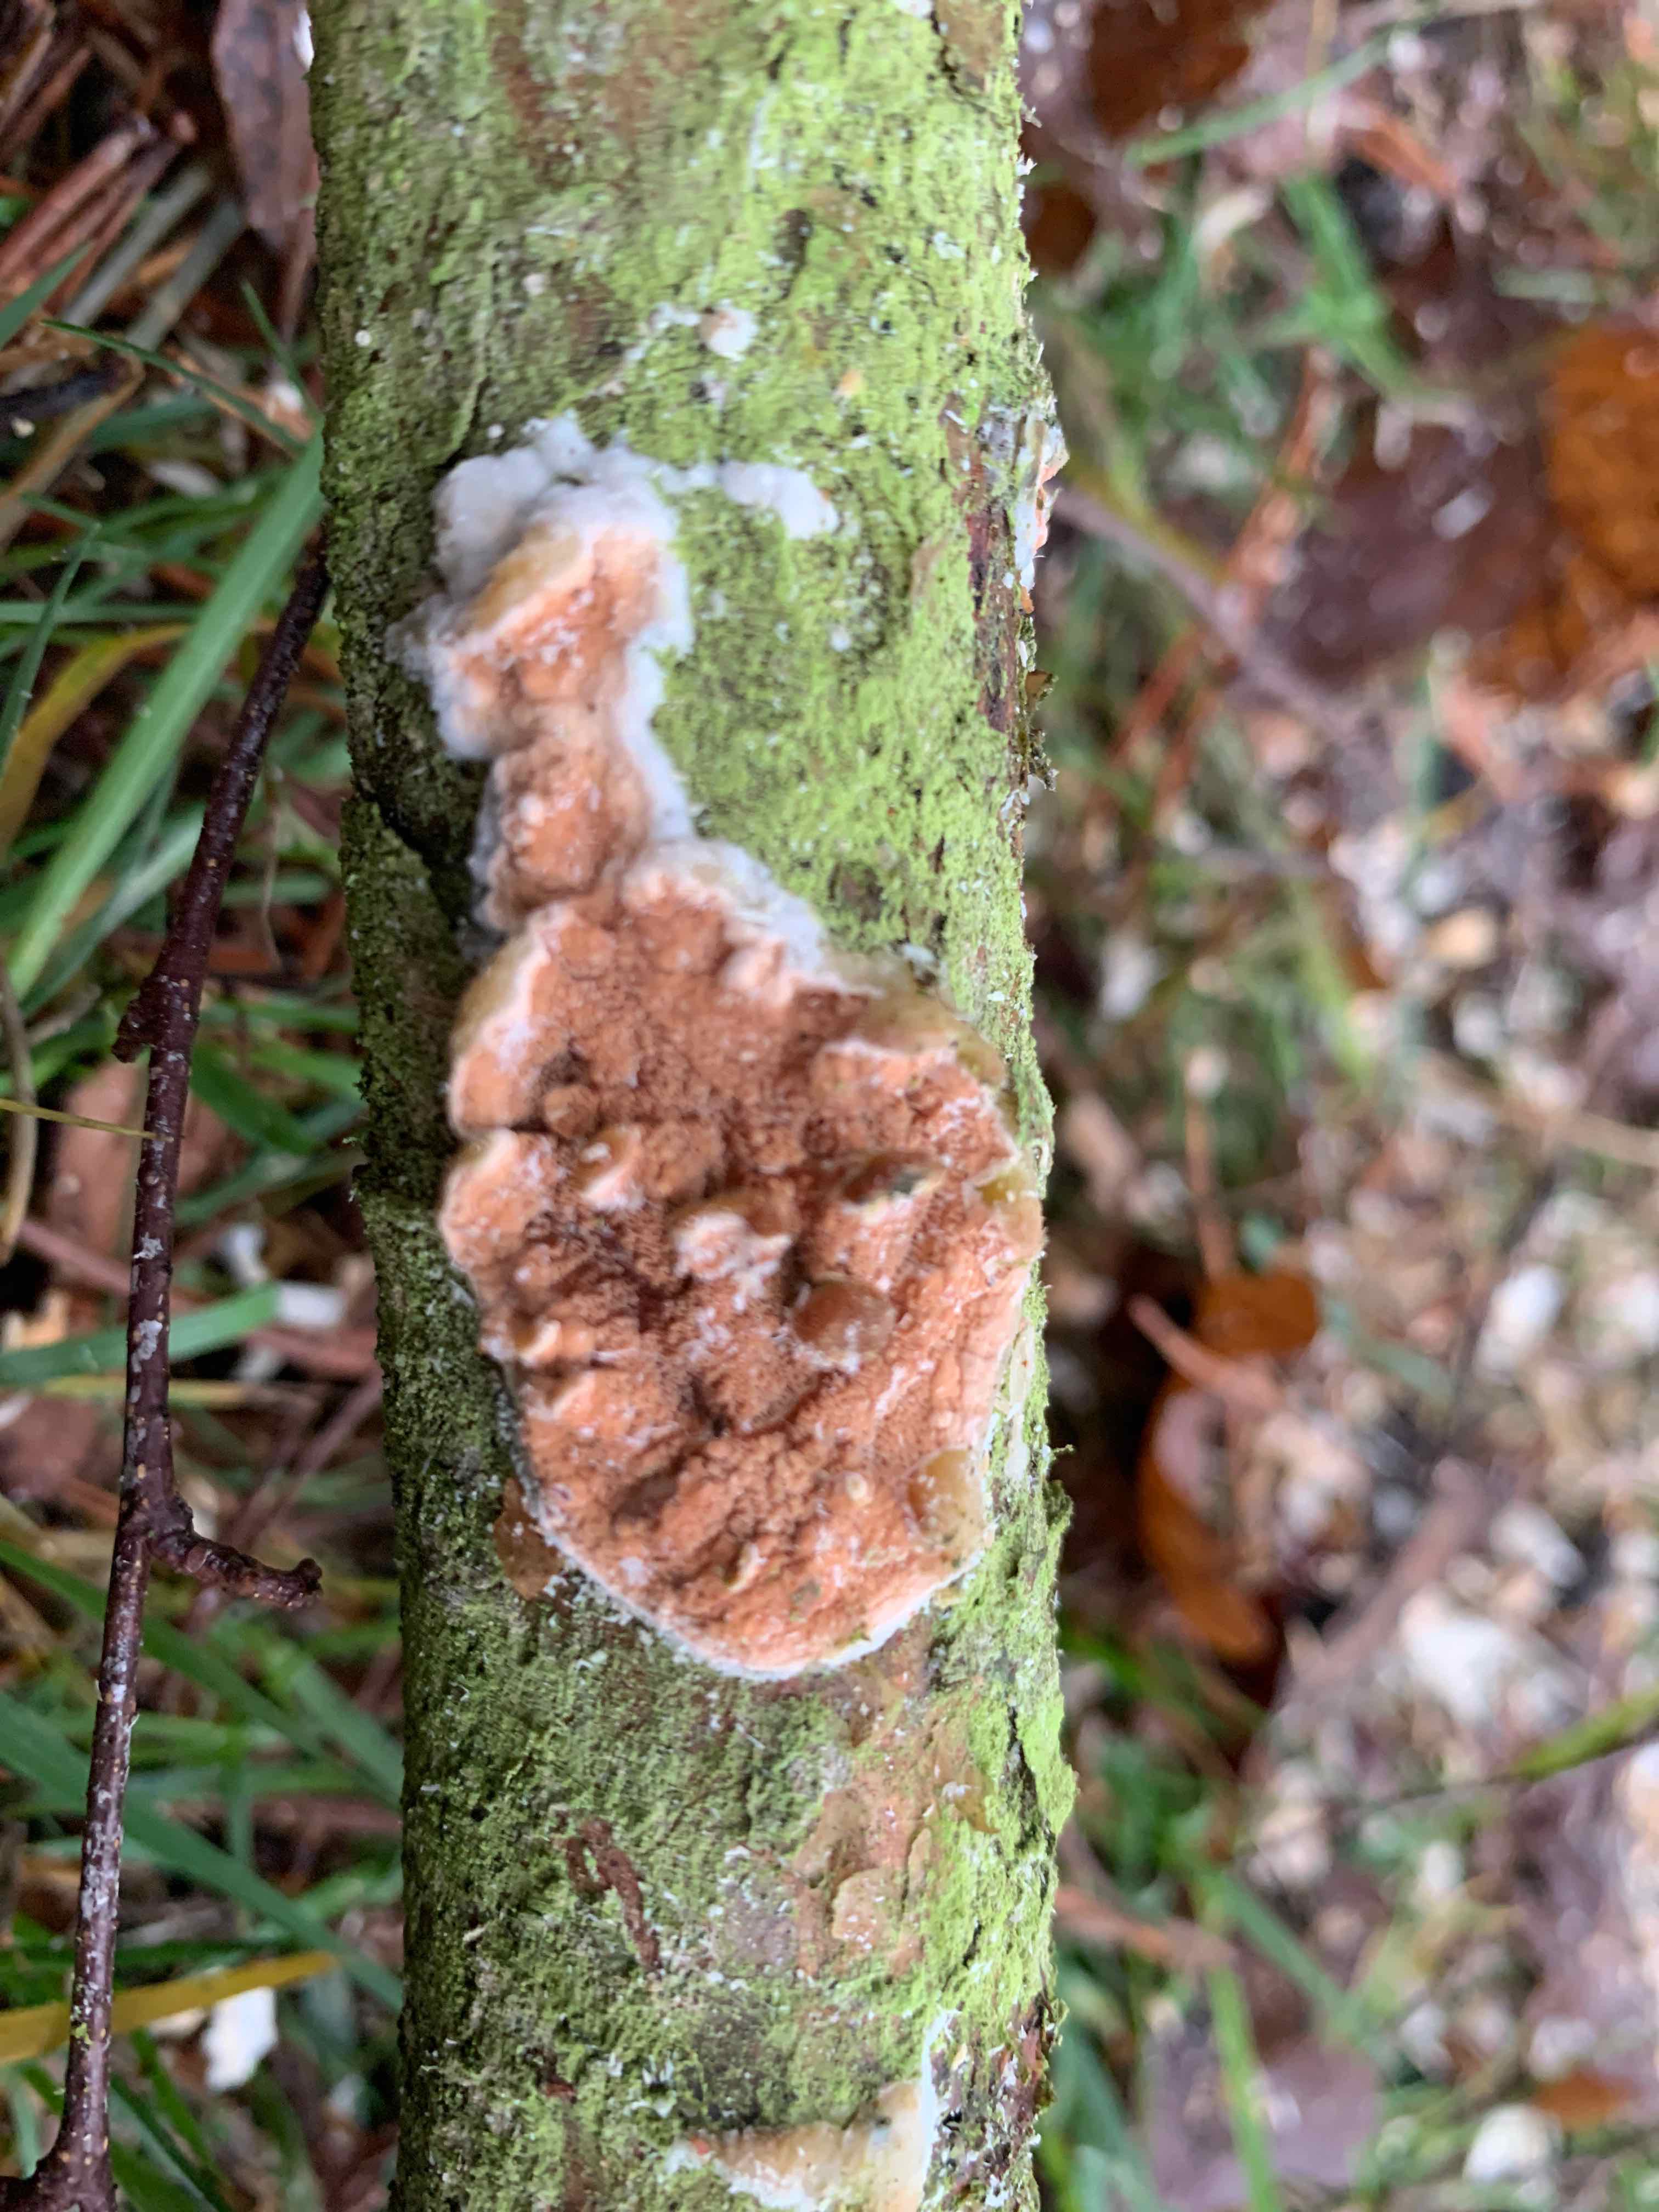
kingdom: Fungi
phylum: Basidiomycota
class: Agaricomycetes
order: Polyporales
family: Irpicaceae
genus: Meruliopsis
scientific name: Meruliopsis taxicola
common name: purpurbrun foldporesvamp
